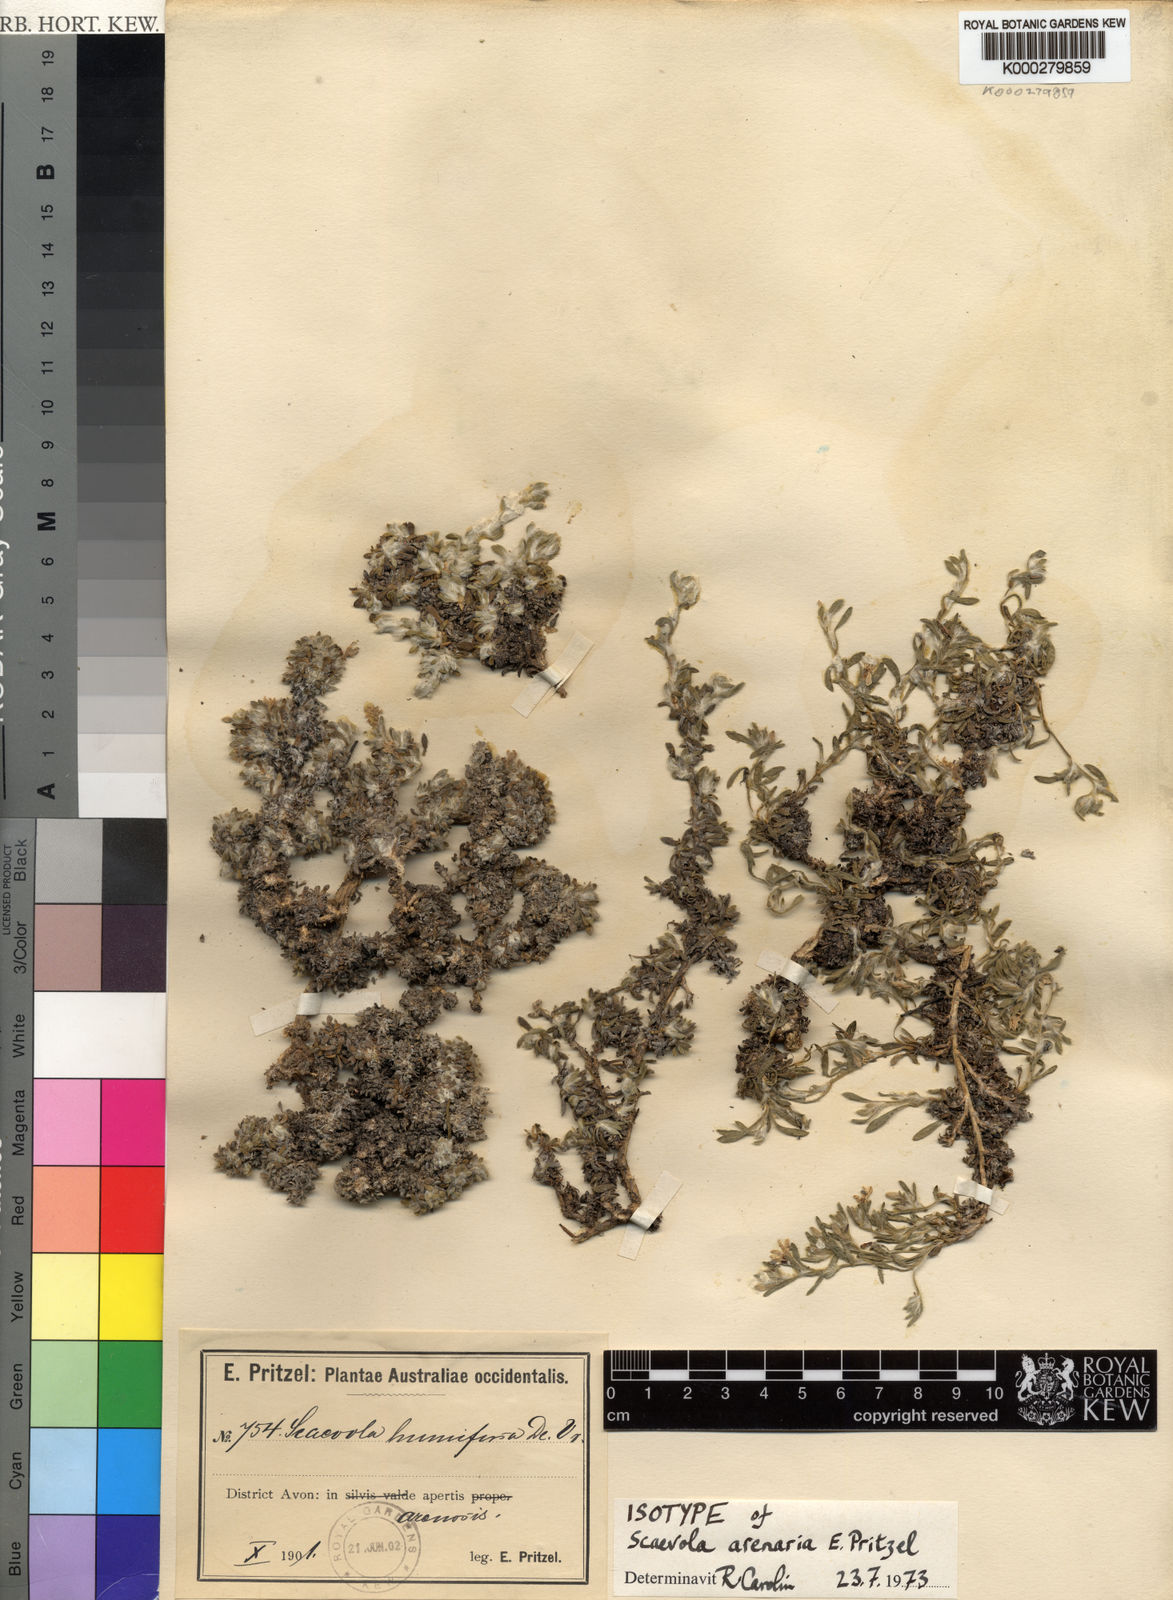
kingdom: Plantae
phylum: Tracheophyta
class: Magnoliopsida
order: Asterales
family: Goodeniaceae
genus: Scaevola
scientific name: Scaevola humifusa
